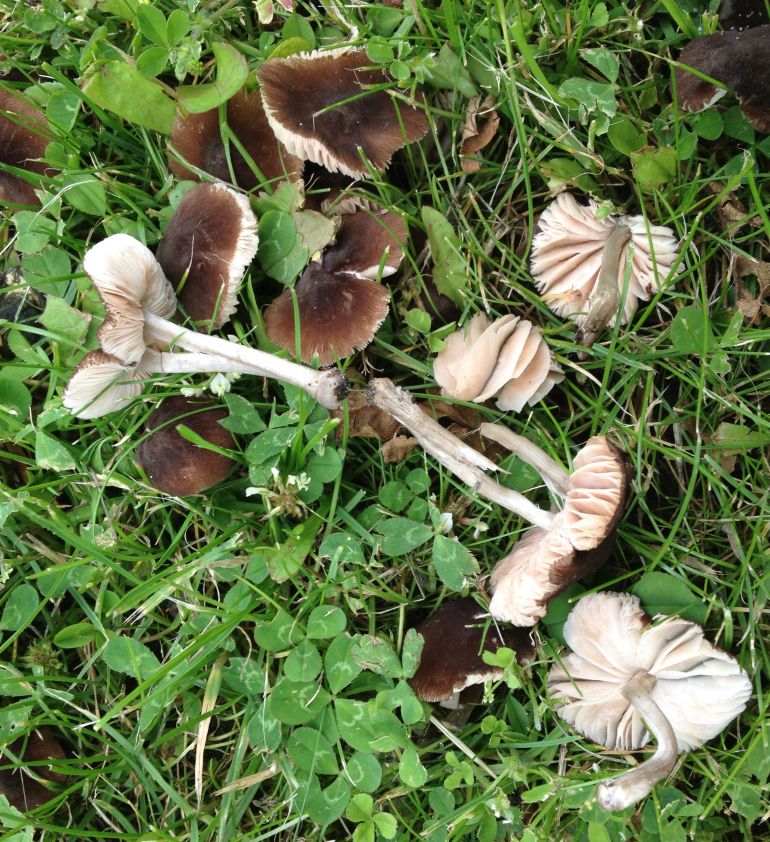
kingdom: Fungi
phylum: Basidiomycota
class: Agaricomycetes
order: Agaricales
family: Pluteaceae
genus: Pluteus
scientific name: Pluteus podospileus
